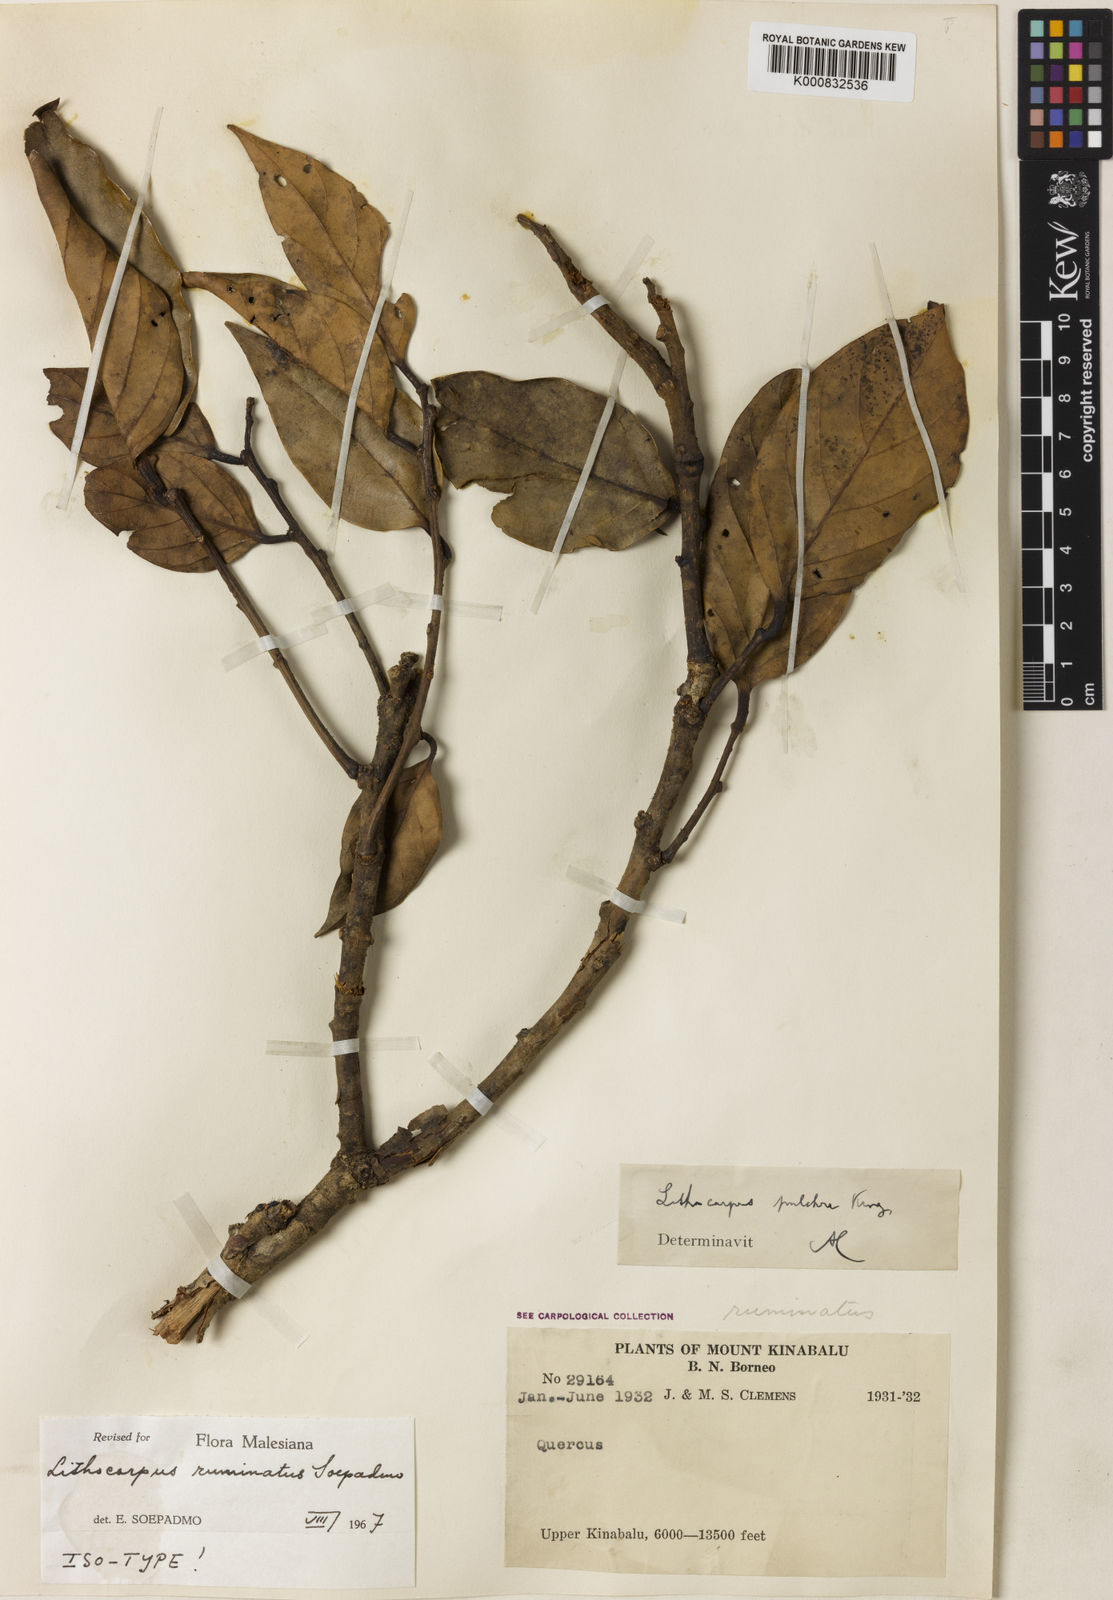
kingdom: Plantae
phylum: Tracheophyta
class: Magnoliopsida
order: Fagales
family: Fagaceae
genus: Lithocarpus
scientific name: Lithocarpus ruminatus
